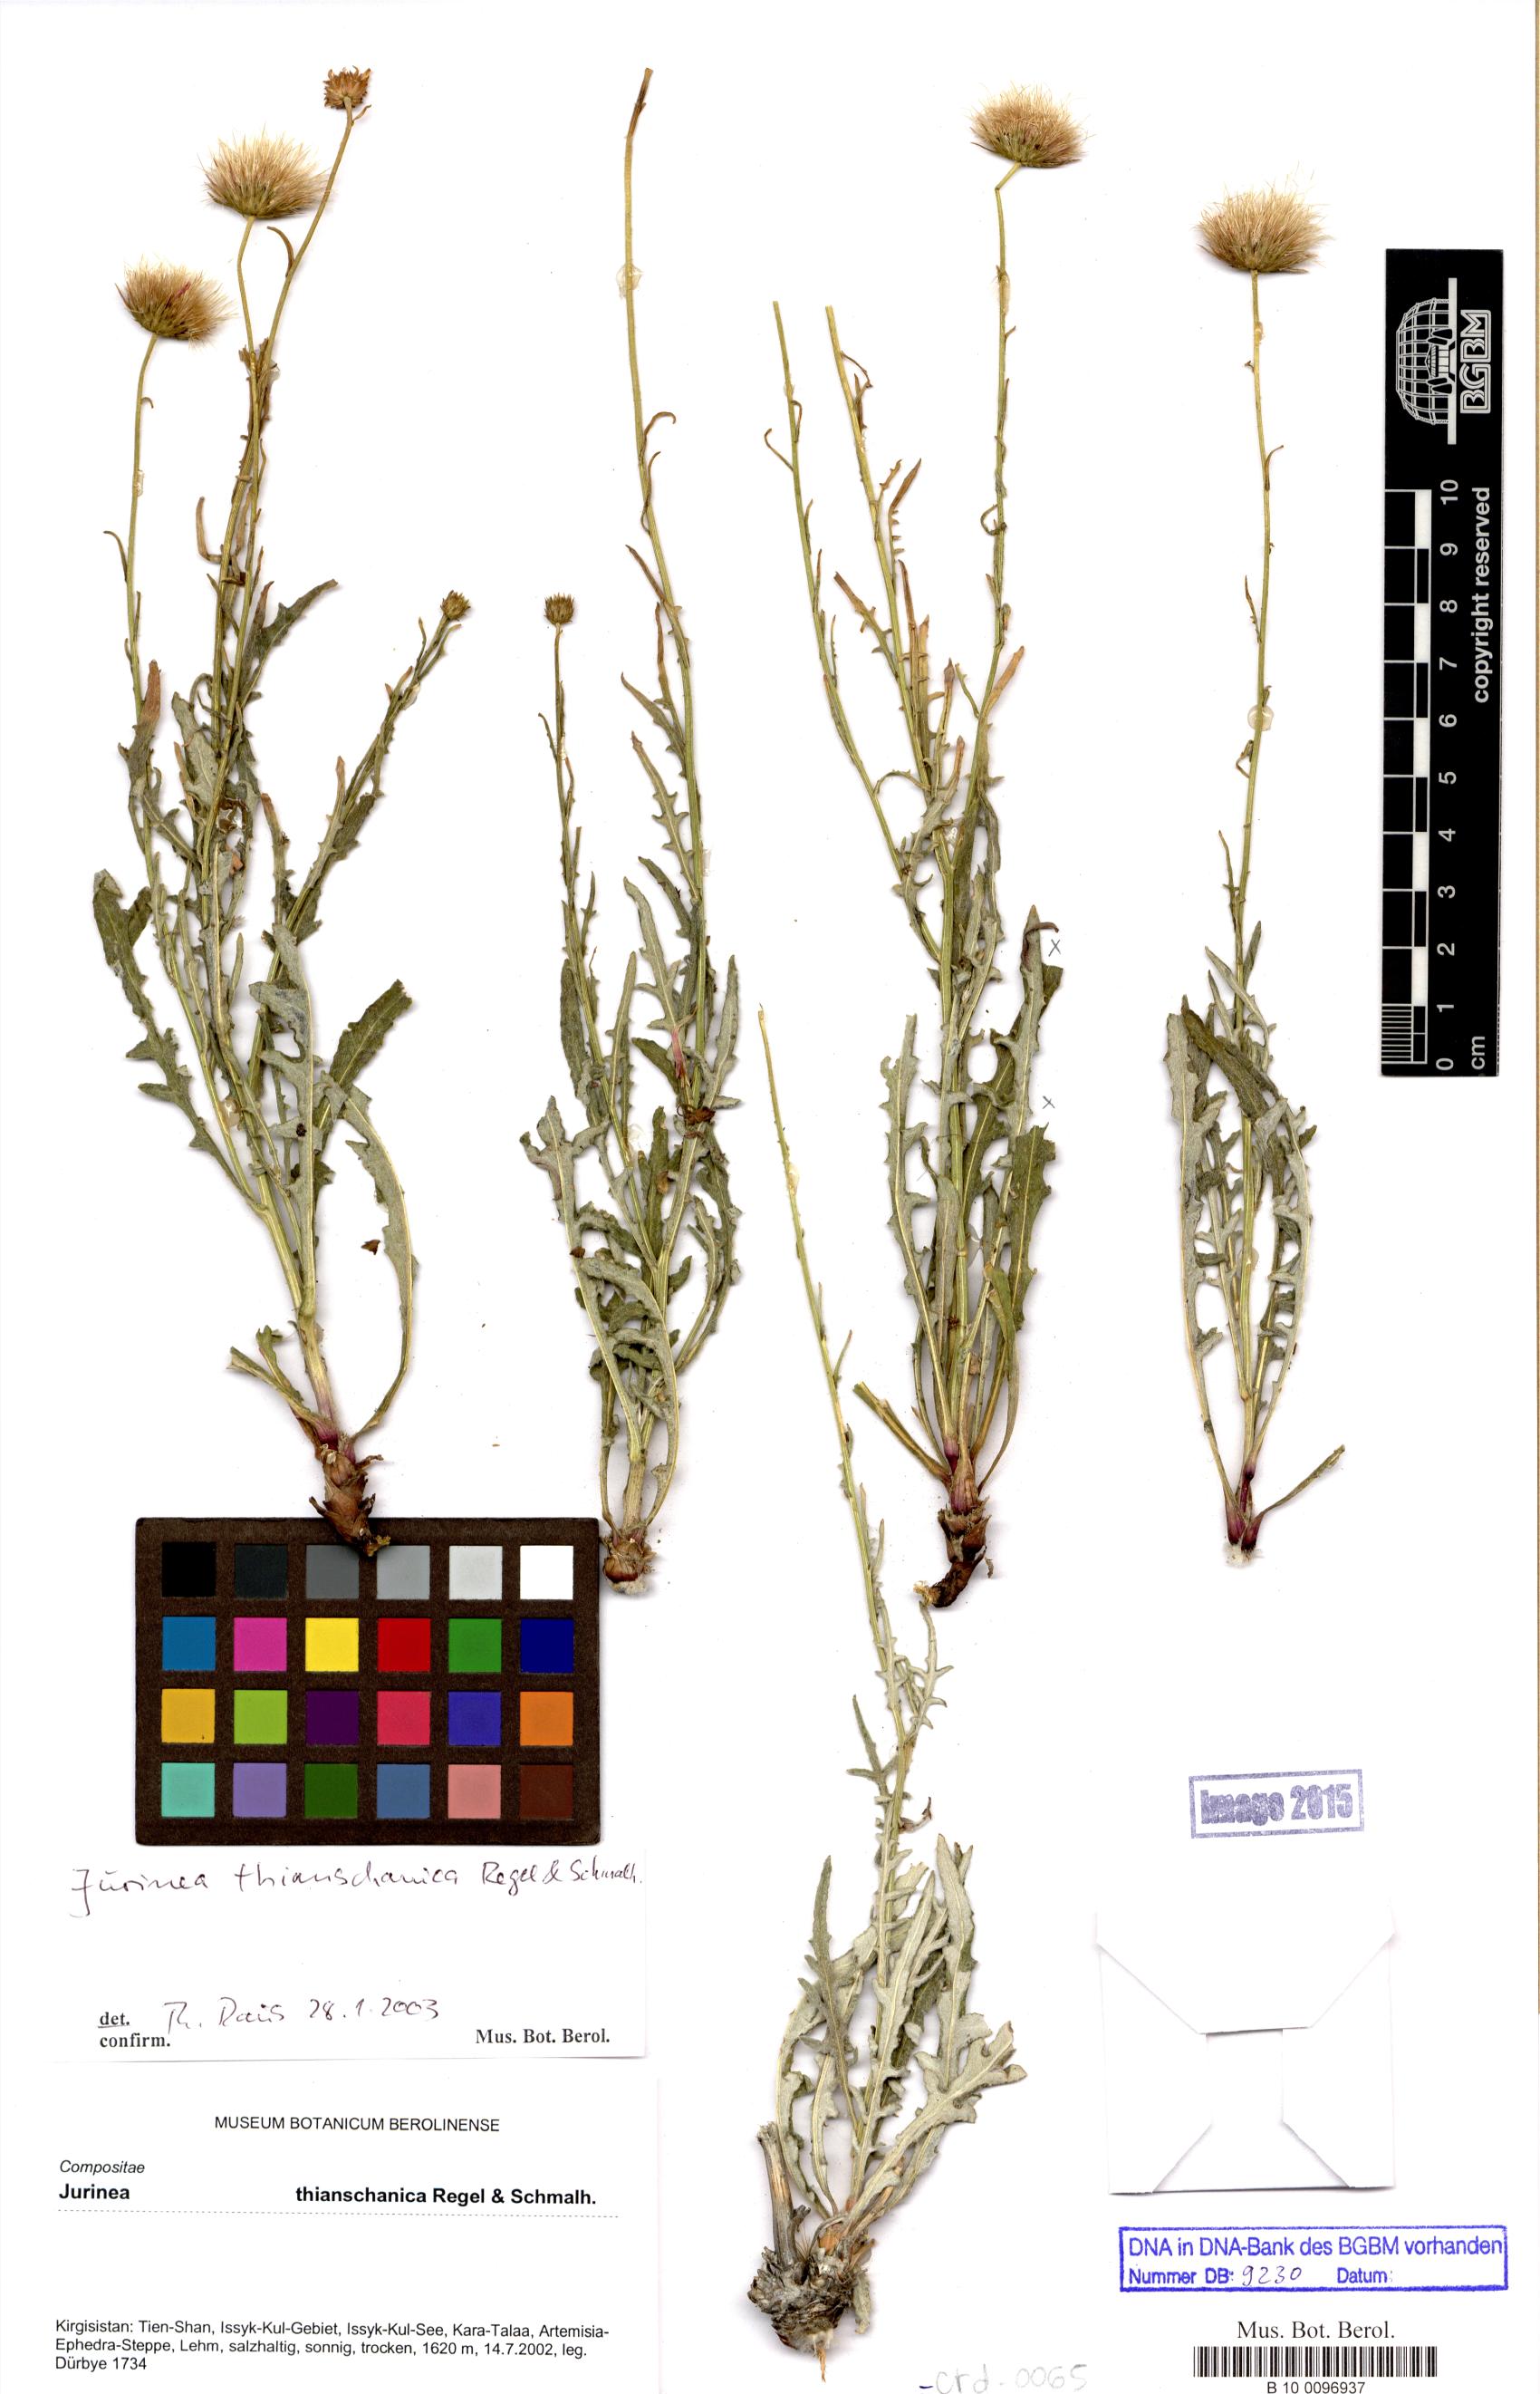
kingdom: Plantae
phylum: Tracheophyta
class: Magnoliopsida
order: Asterales
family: Asteraceae
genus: Jurinea
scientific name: Jurinea thianschanica
